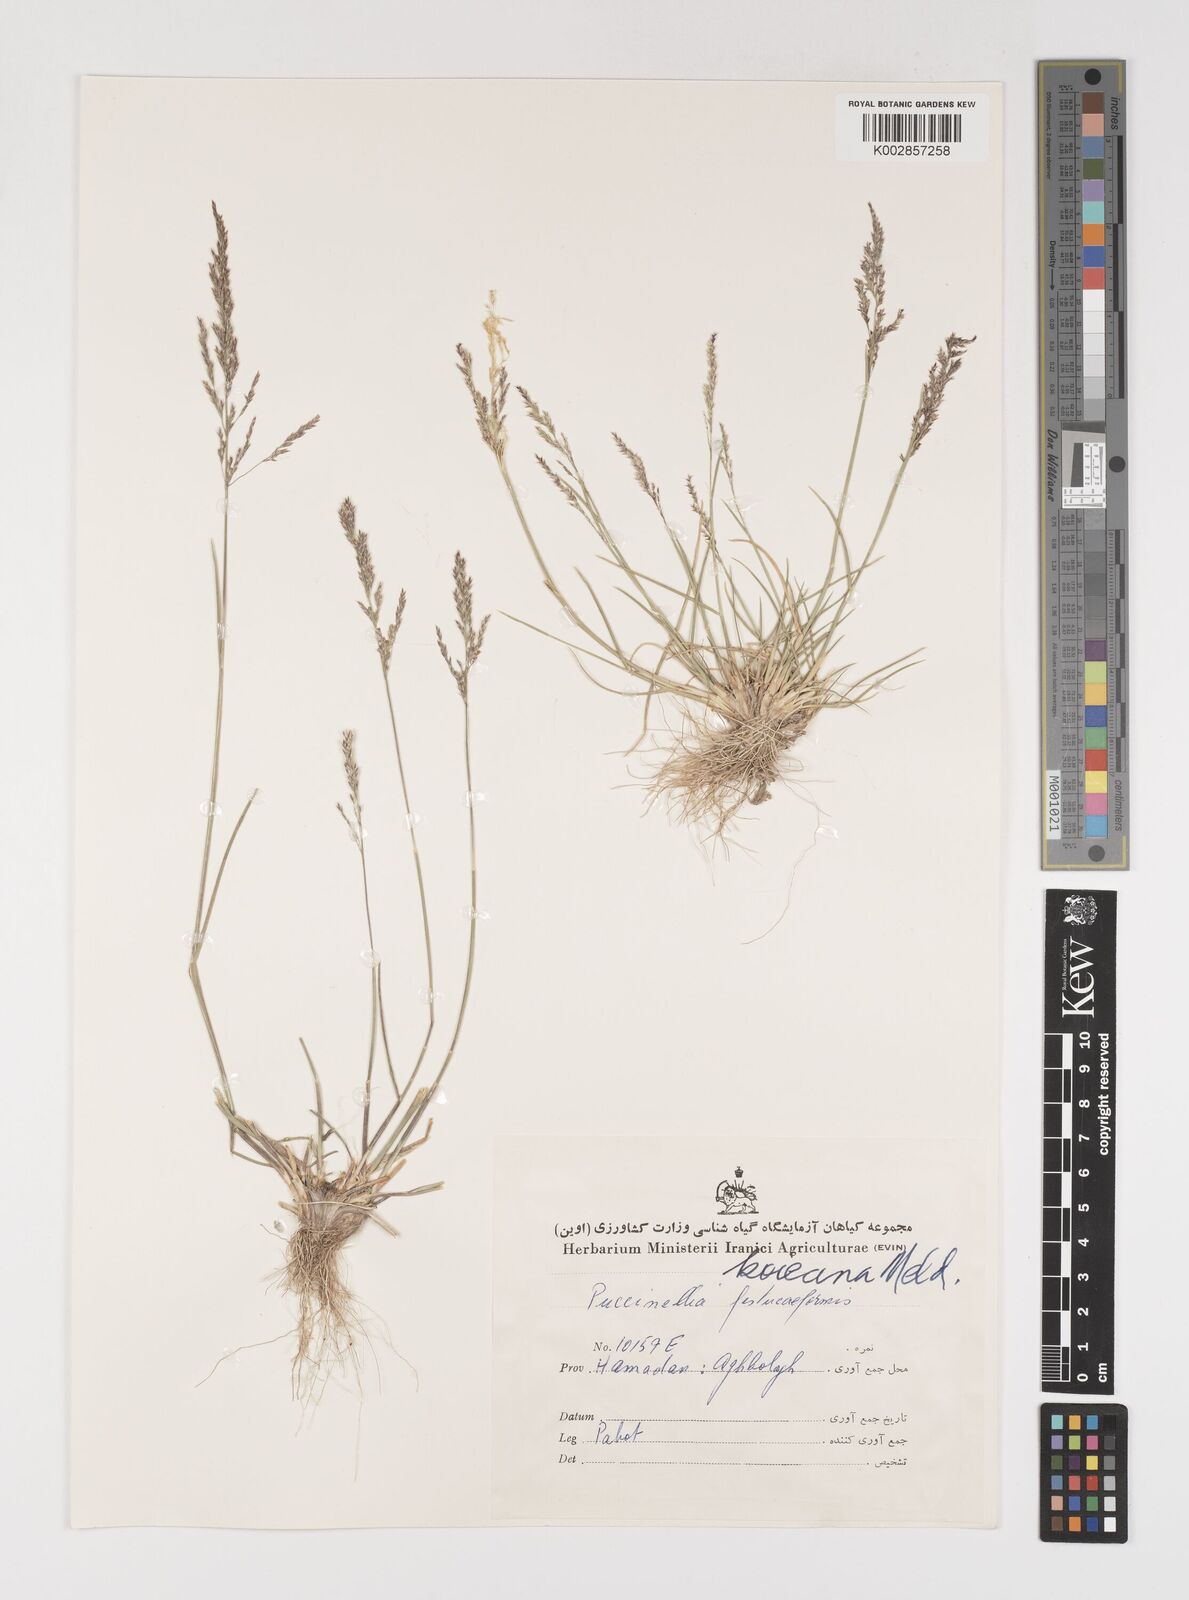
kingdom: Plantae
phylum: Tracheophyta
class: Liliopsida
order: Poales
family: Poaceae
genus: Puccinellia
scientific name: Puccinellia koeieana
